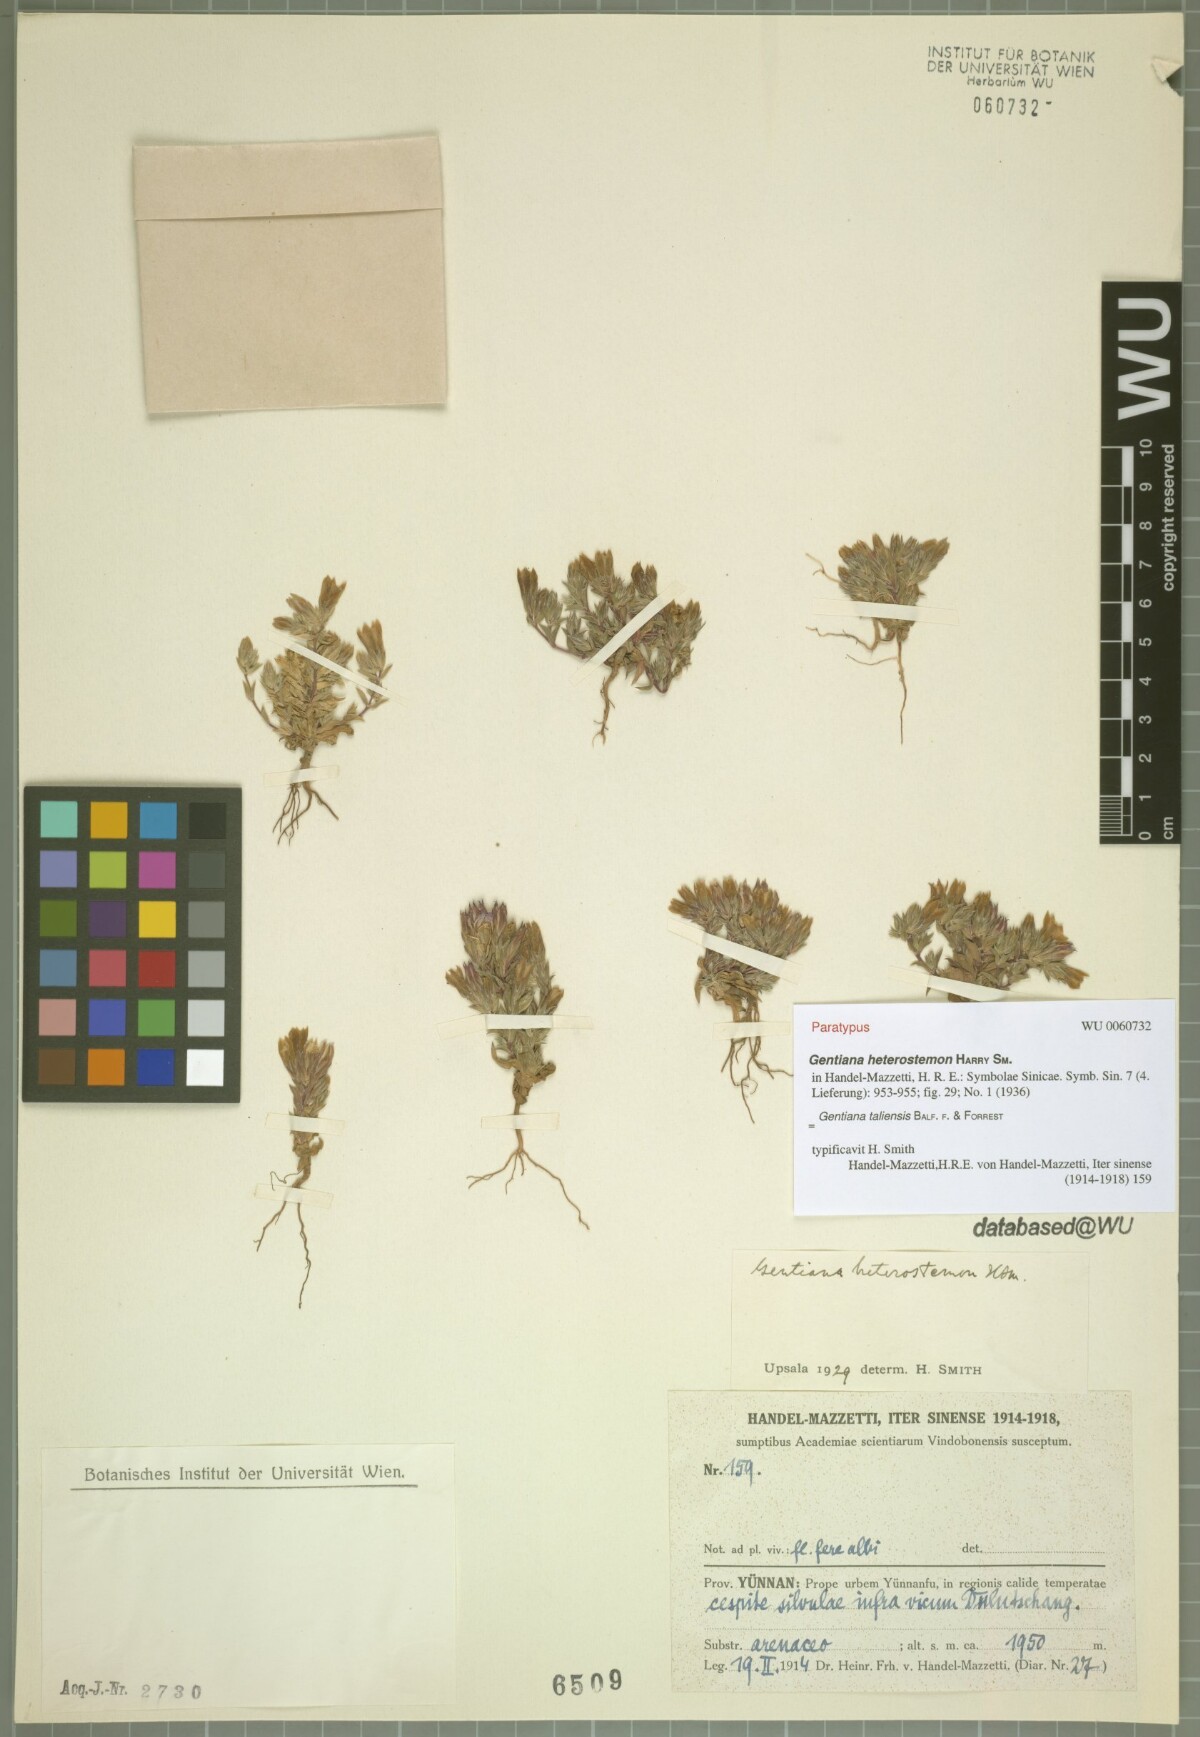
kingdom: Plantae
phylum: Tracheophyta
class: Magnoliopsida
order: Gentianales
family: Gentianaceae
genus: Gentiana
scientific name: Gentiana taliensis
